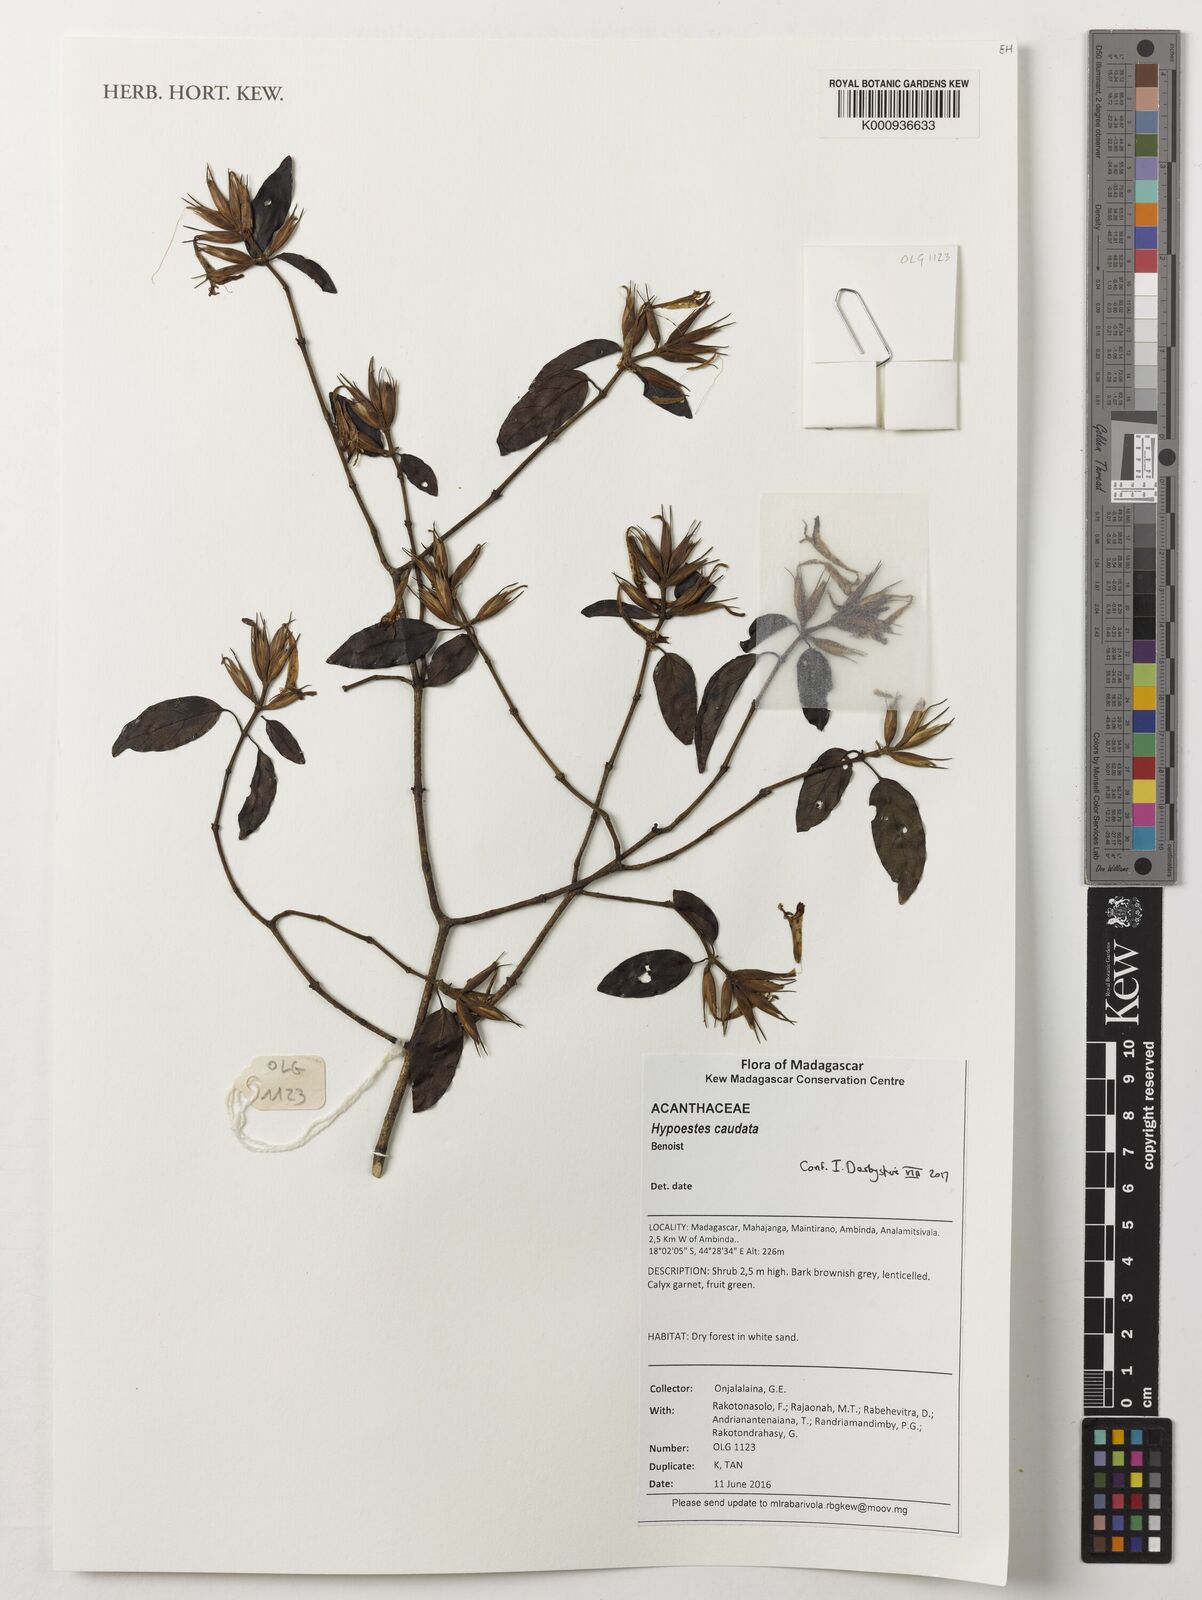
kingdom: Plantae
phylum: Tracheophyta
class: Magnoliopsida
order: Lamiales
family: Acanthaceae
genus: Hypoestes
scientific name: Hypoestes caudata
